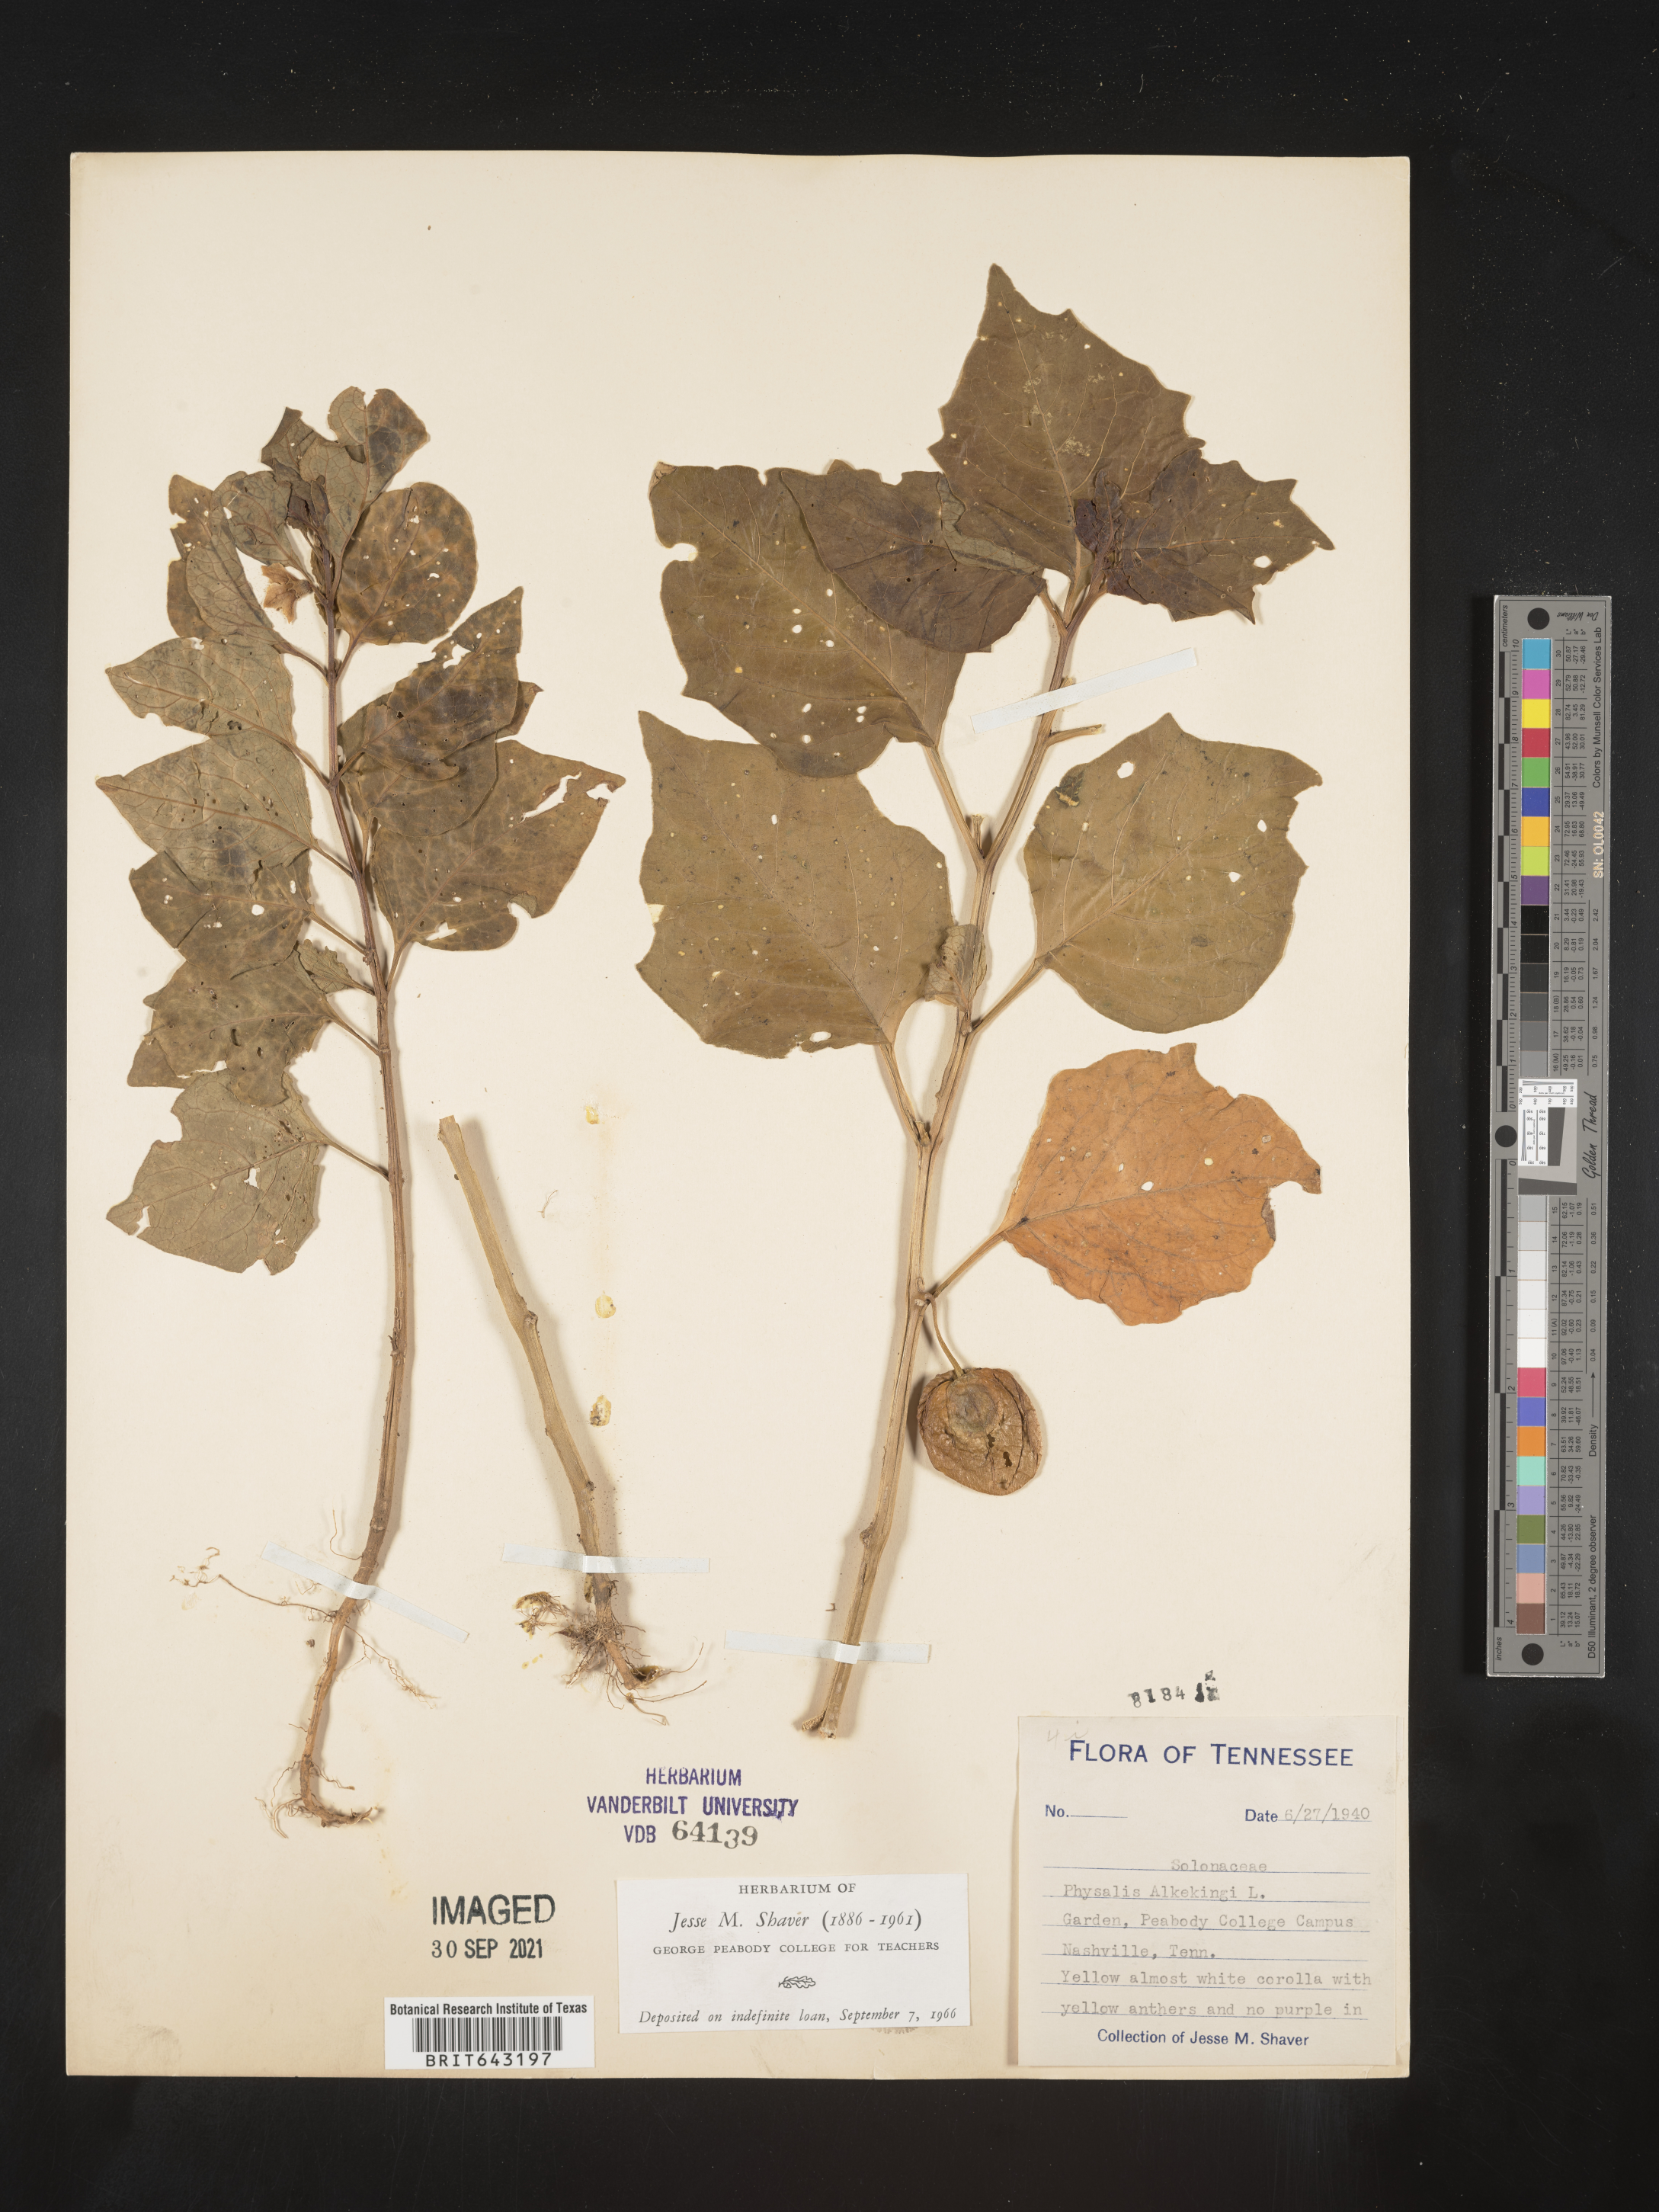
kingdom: Plantae
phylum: Tracheophyta
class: Magnoliopsida
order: Solanales
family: Solanaceae
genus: Solanum
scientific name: Solanum
